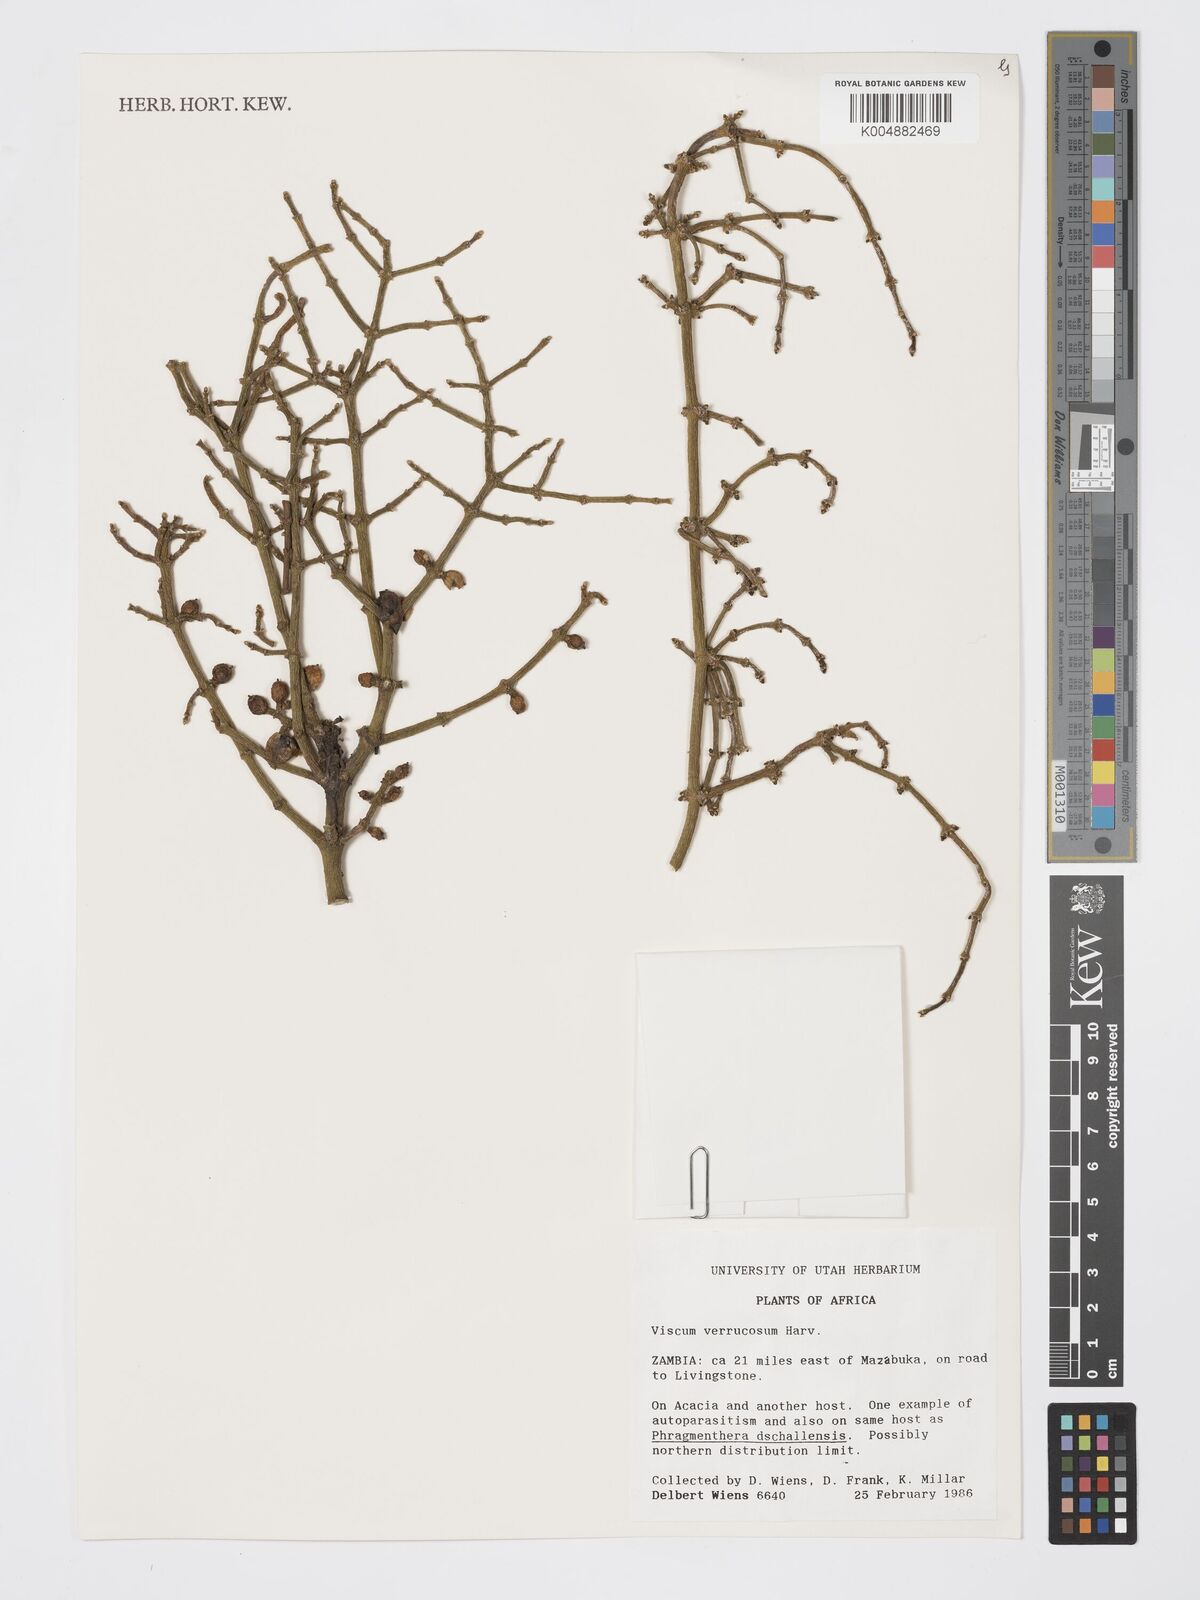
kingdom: Plantae
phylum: Tracheophyta
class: Magnoliopsida
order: Santalales
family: Viscaceae
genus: Viscum
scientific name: Viscum verrucosum
